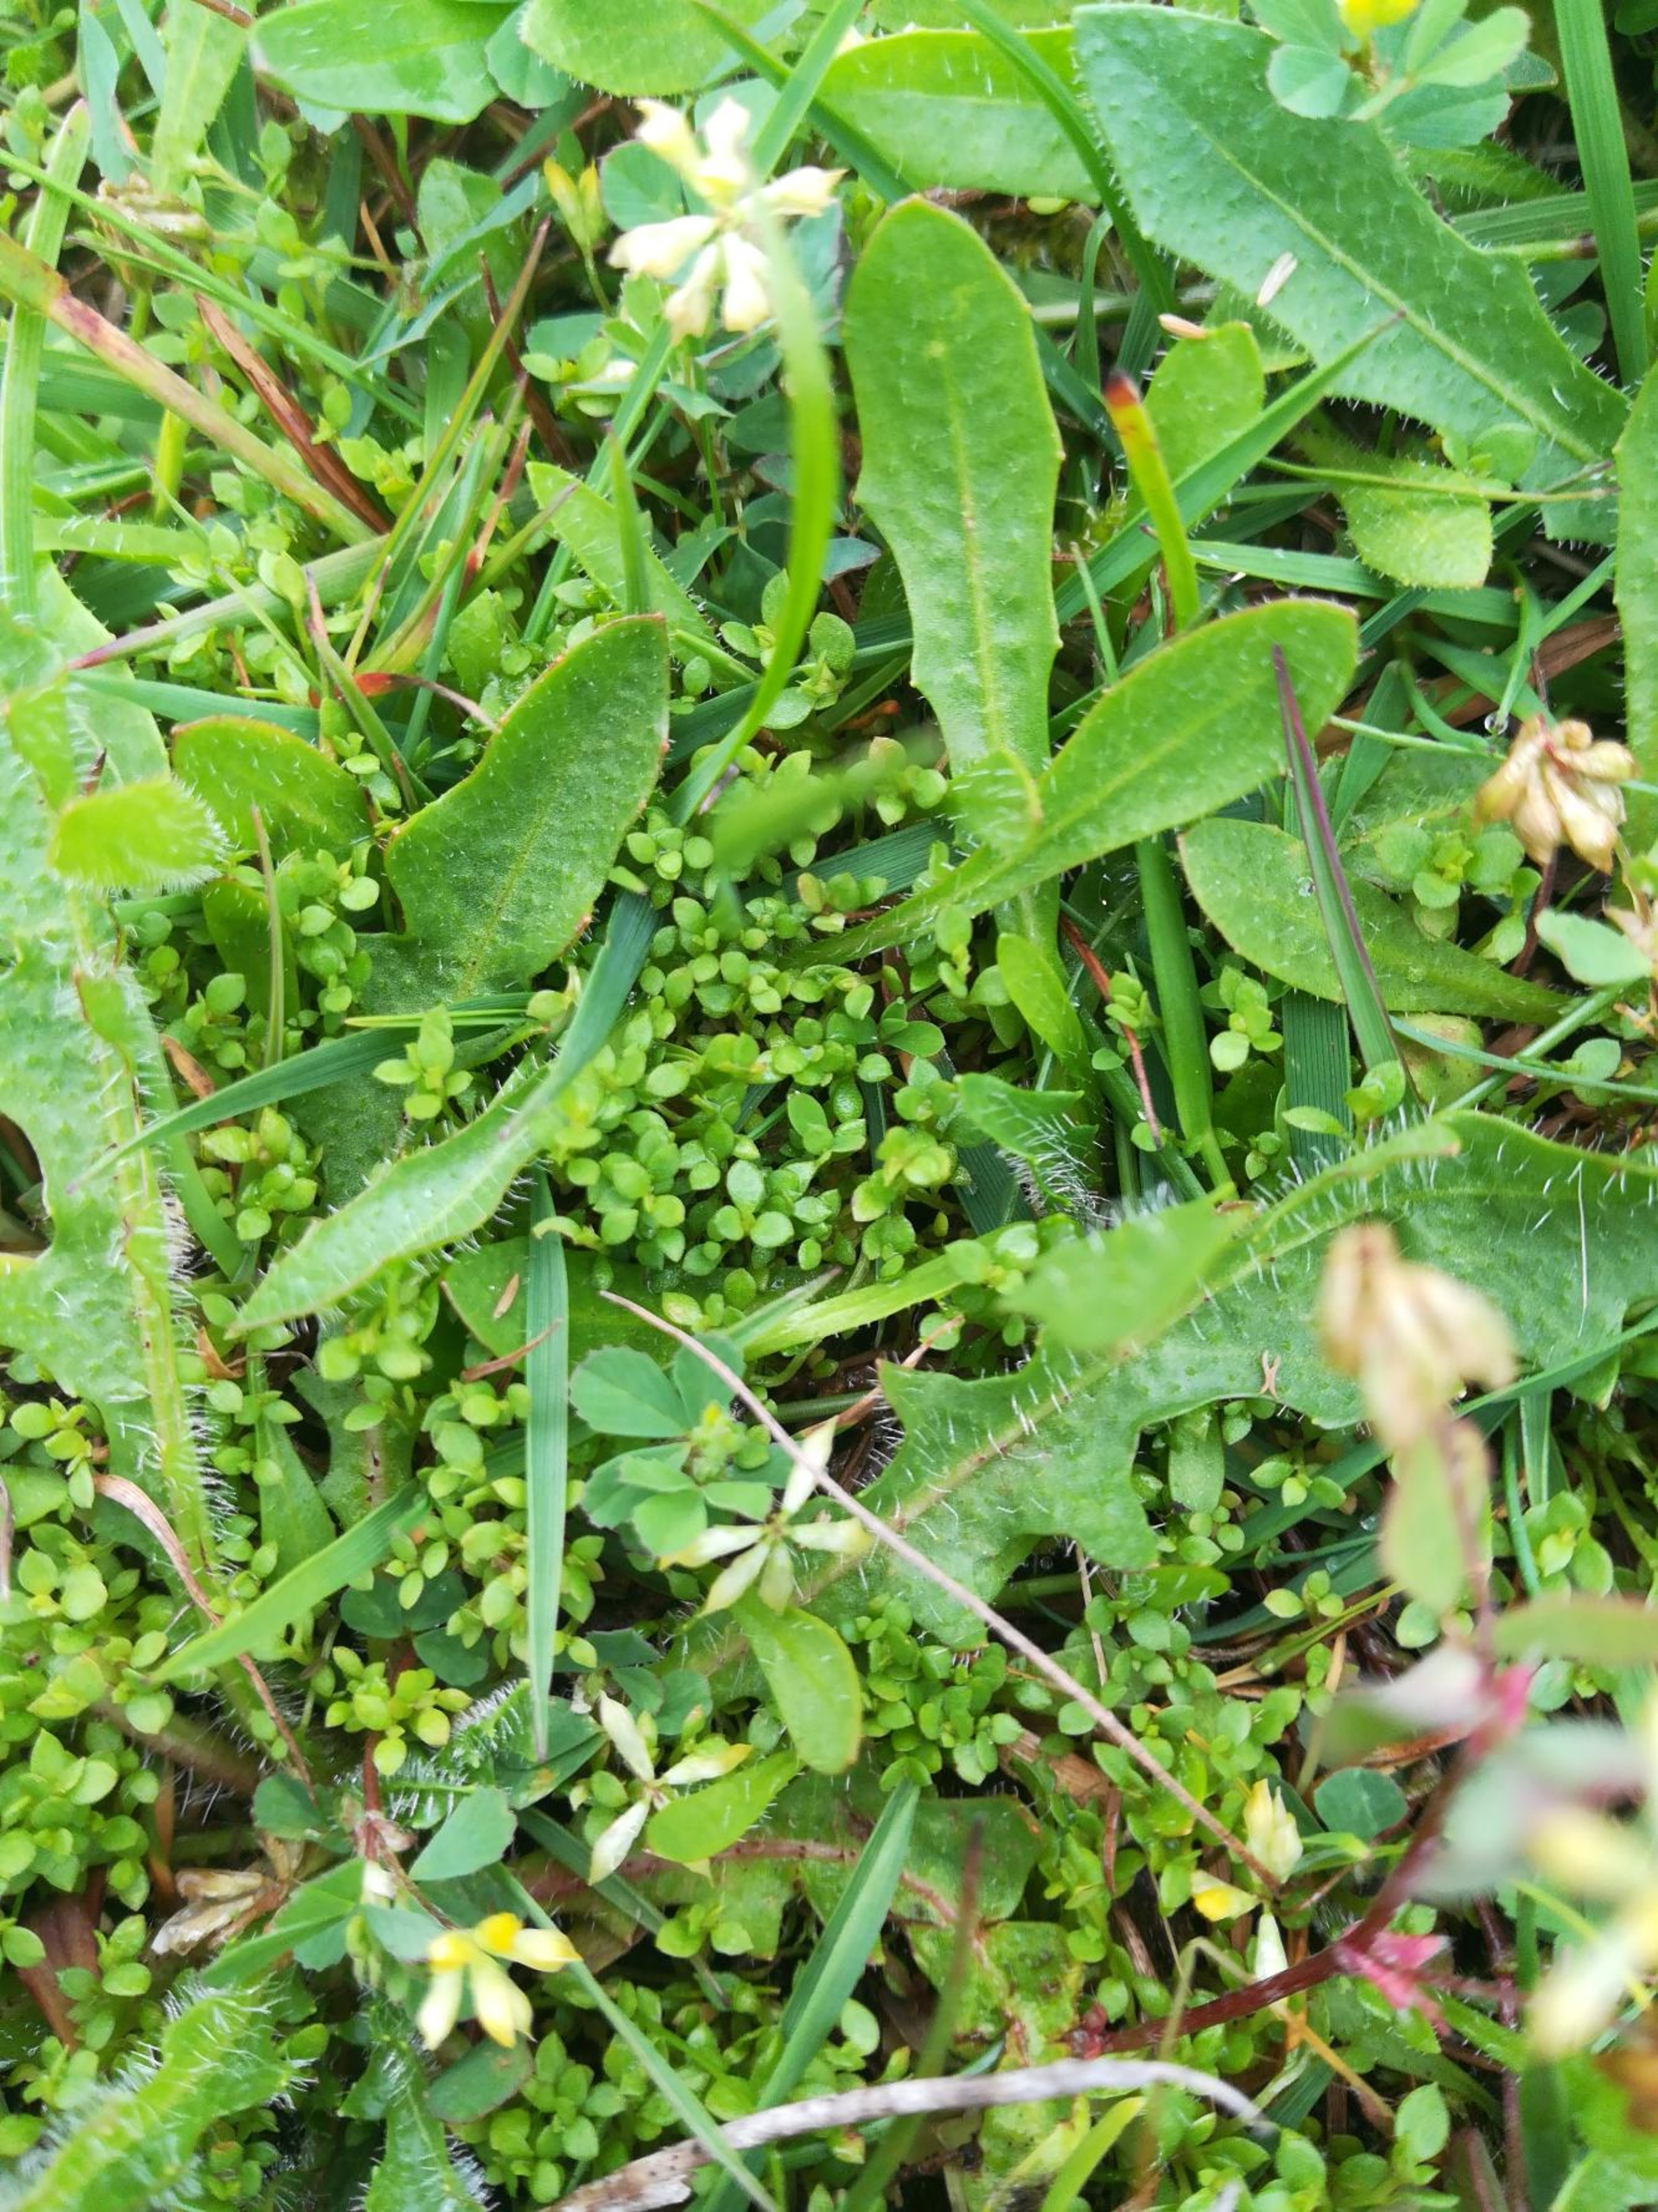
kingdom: Plantae
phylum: Tracheophyta
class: Magnoliopsida
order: Ericales
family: Primulaceae
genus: Lysimachia
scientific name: Lysimachia minima
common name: Knudearve
